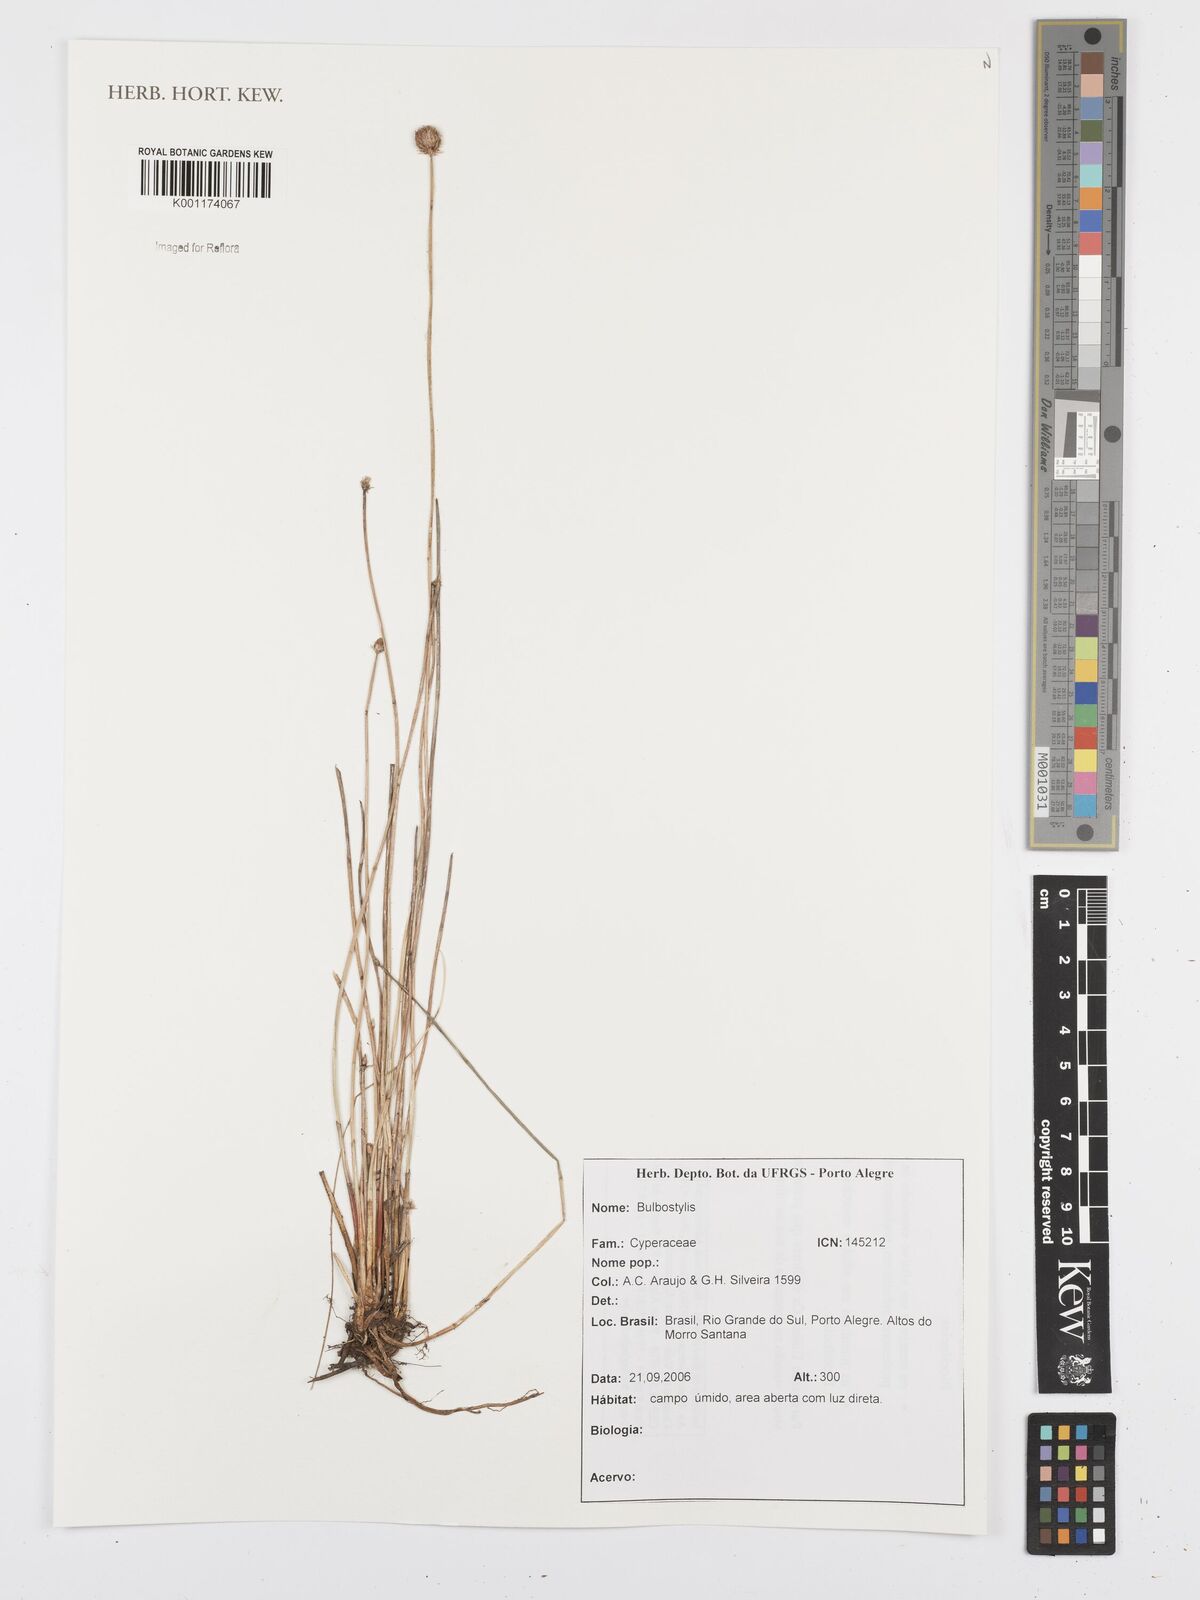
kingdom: Plantae
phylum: Tracheophyta
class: Liliopsida
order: Poales
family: Cyperaceae
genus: Bulbostylis
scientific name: Bulbostylis
